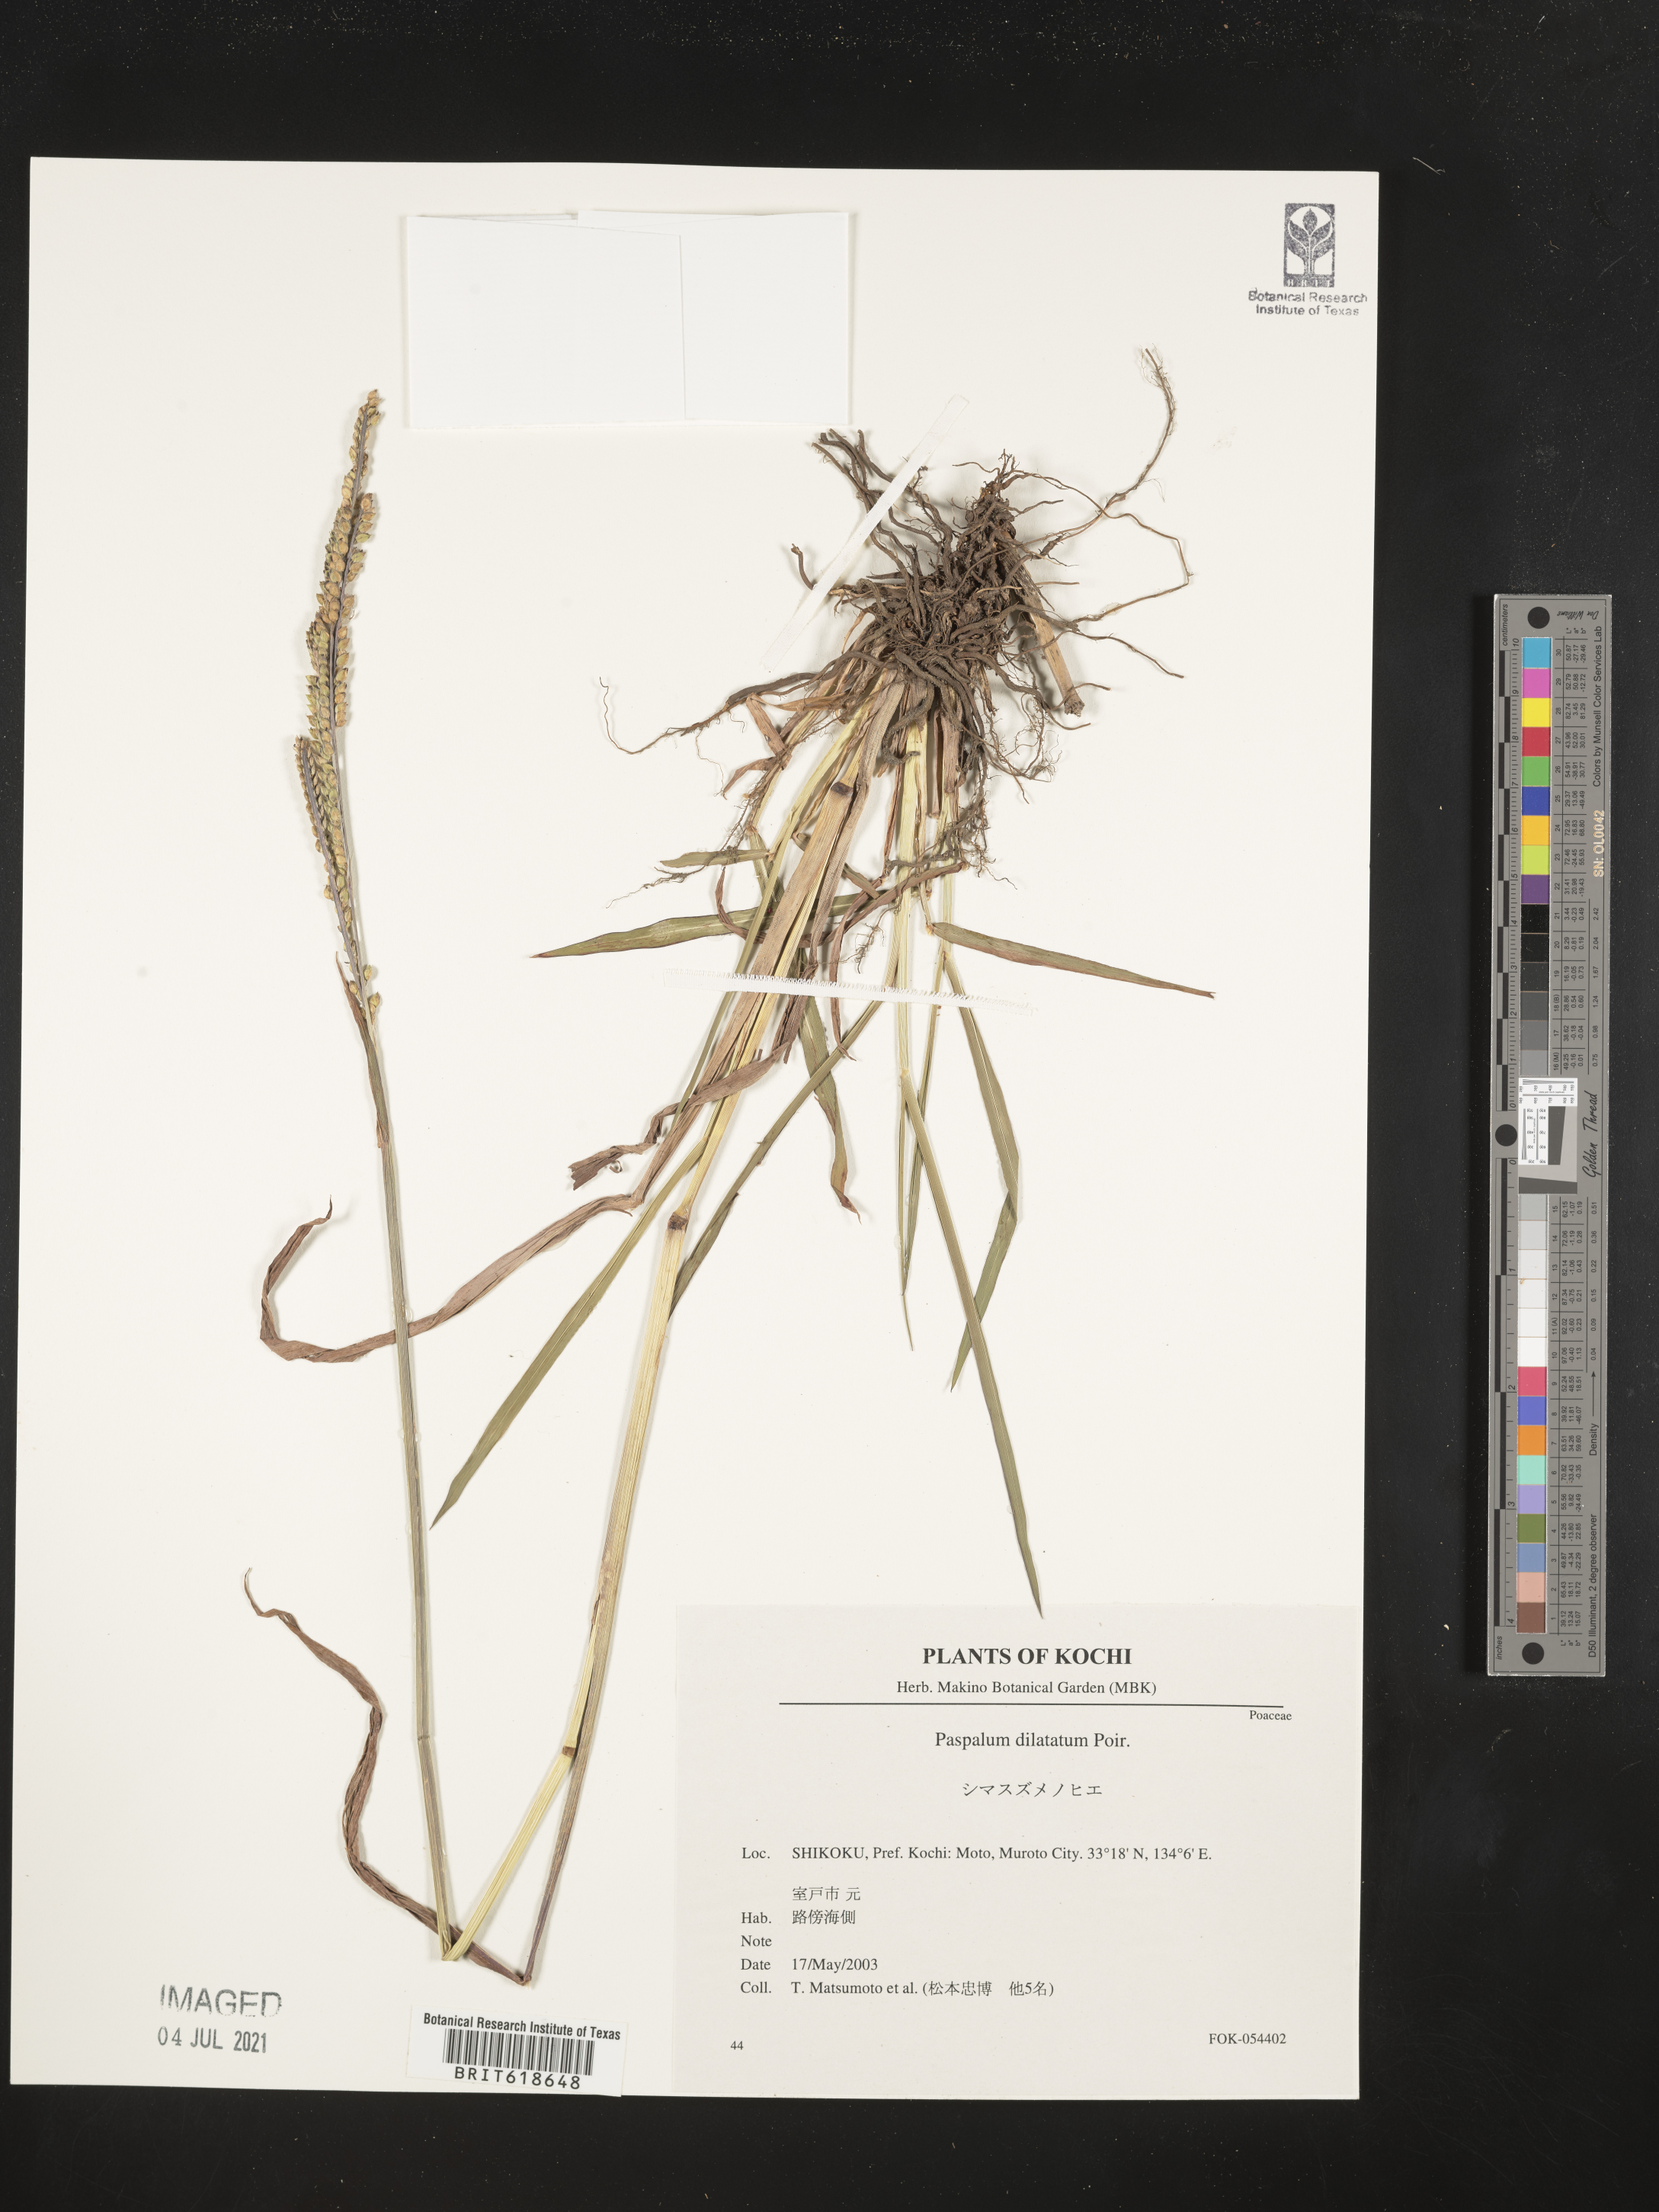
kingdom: Plantae
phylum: Tracheophyta
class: Liliopsida
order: Poales
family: Poaceae
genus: Paspalum
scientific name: Paspalum dilatatum
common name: Dallisgrass
